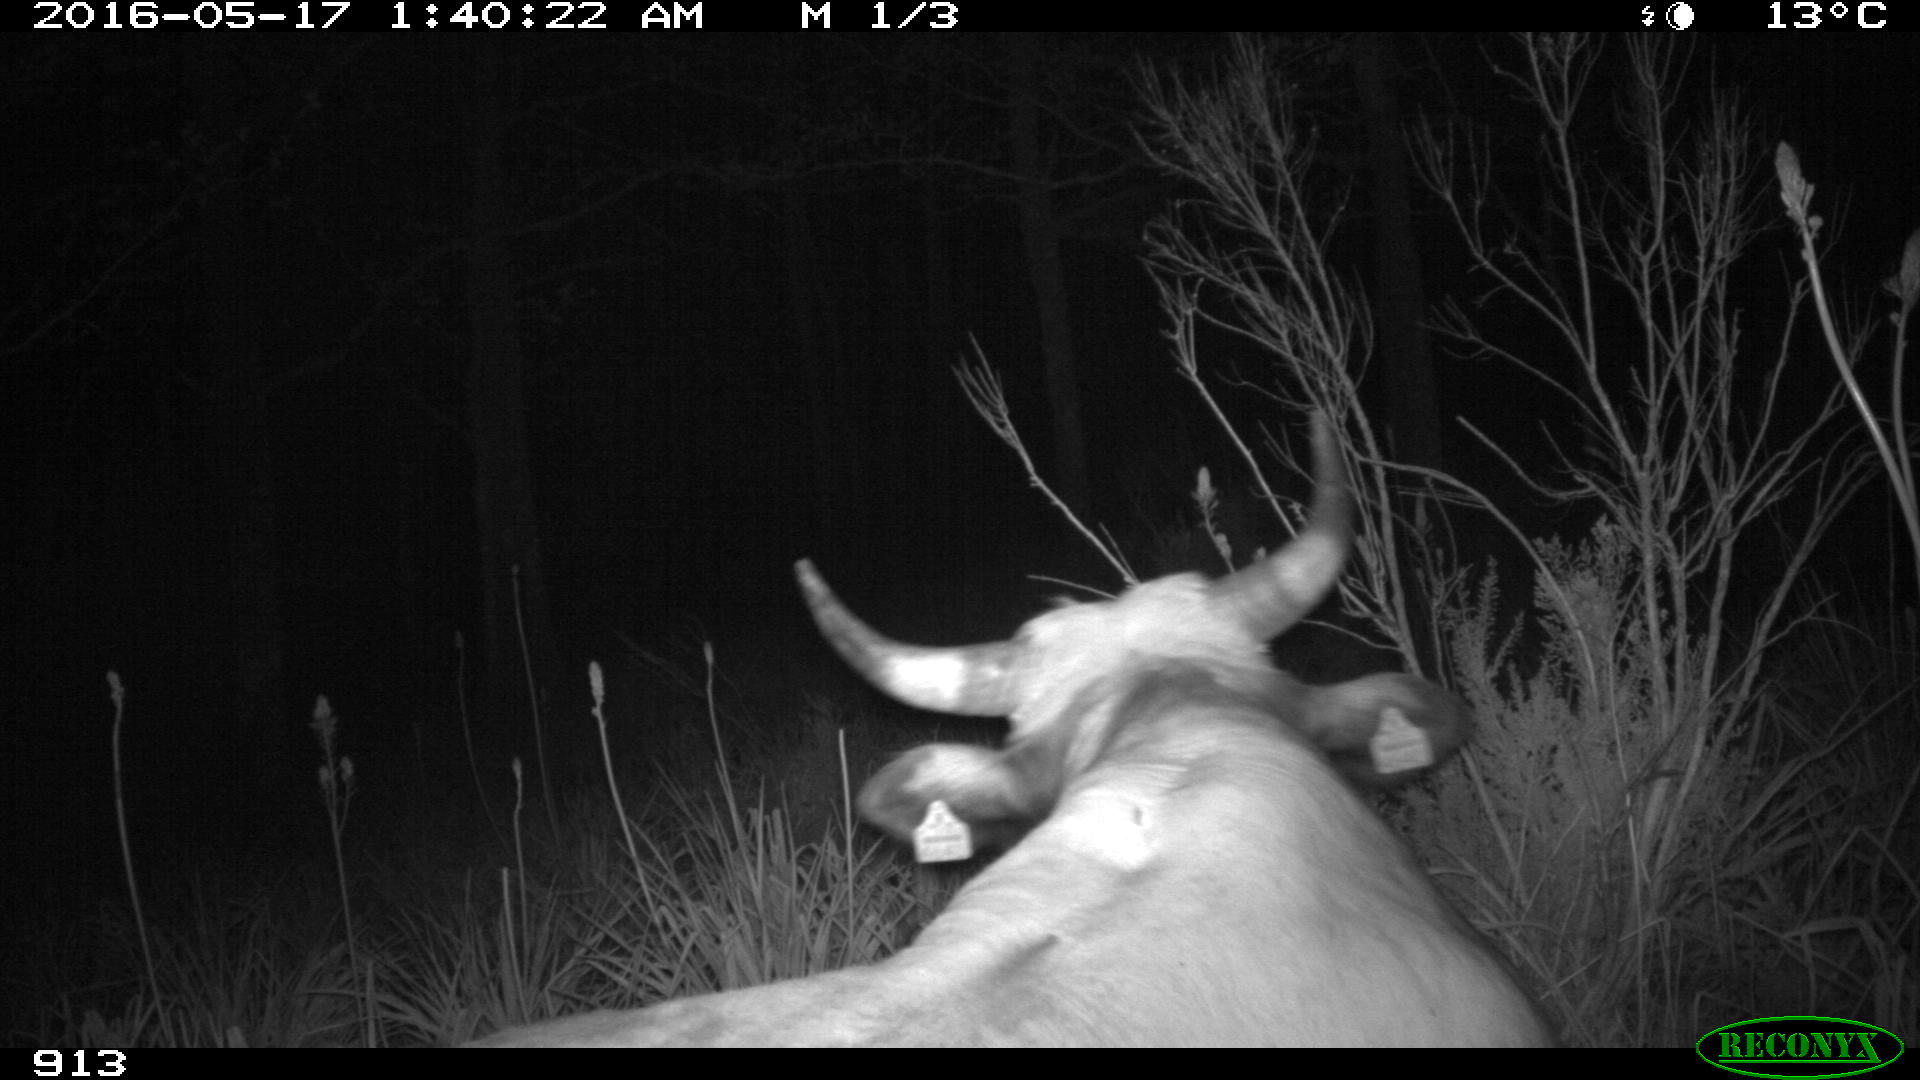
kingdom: Animalia
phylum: Chordata
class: Mammalia
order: Artiodactyla
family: Bovidae
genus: Bos
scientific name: Bos taurus
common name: Domesticated cattle
